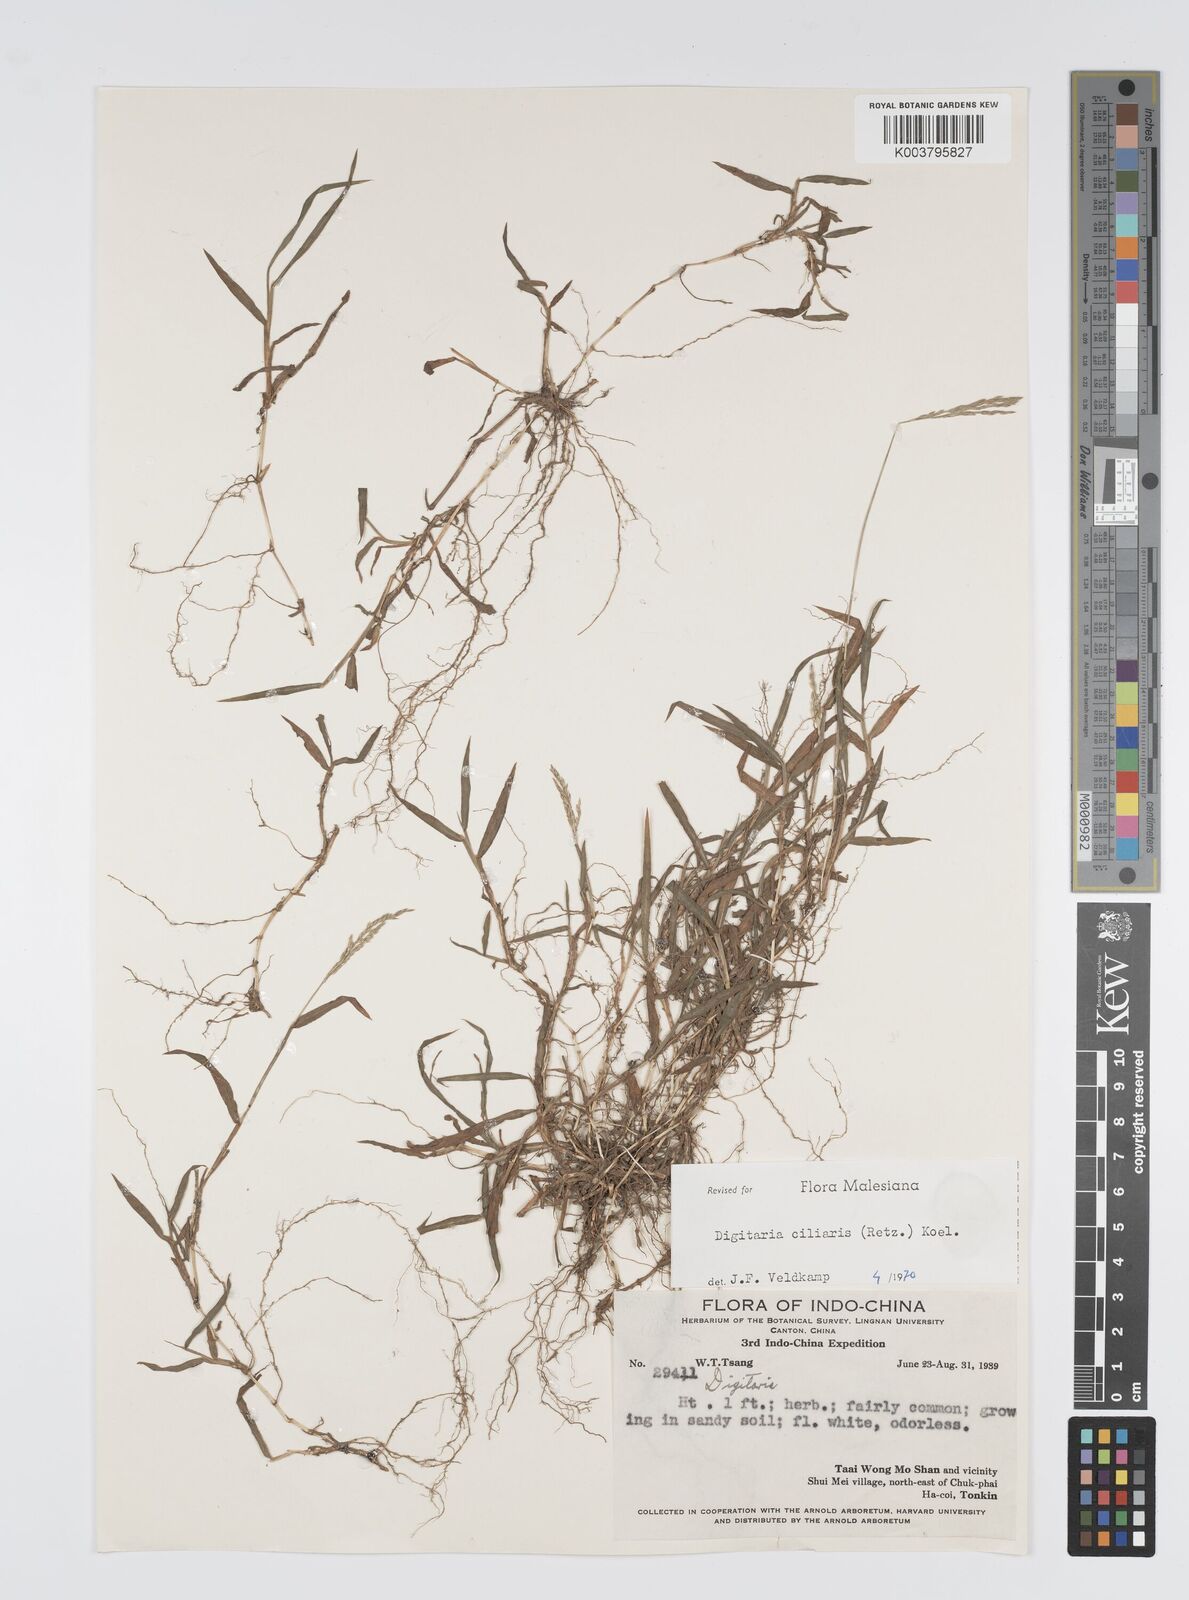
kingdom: Plantae
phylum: Tracheophyta
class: Liliopsida
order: Poales
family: Poaceae
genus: Digitaria
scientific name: Digitaria ciliaris
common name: Tropical finger-grass
